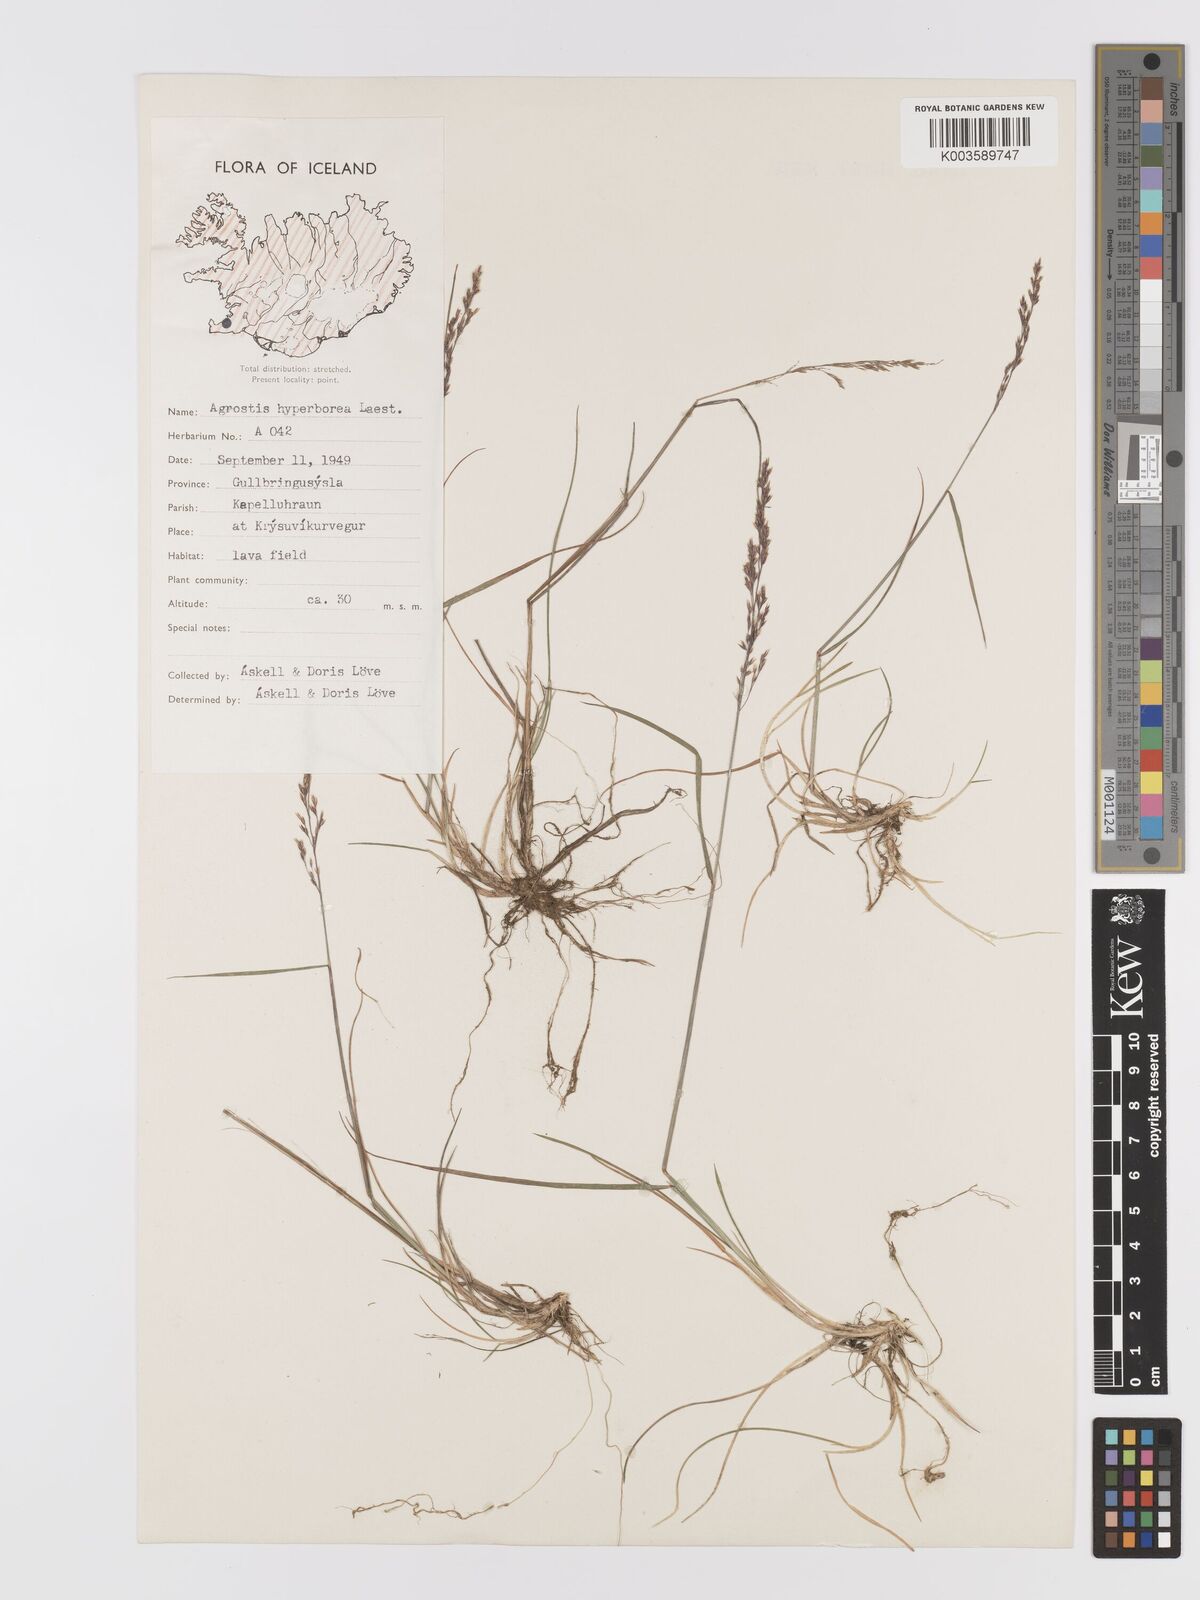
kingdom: Plantae
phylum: Tracheophyta
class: Liliopsida
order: Poales
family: Poaceae
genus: Agrostis
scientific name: Agrostis
